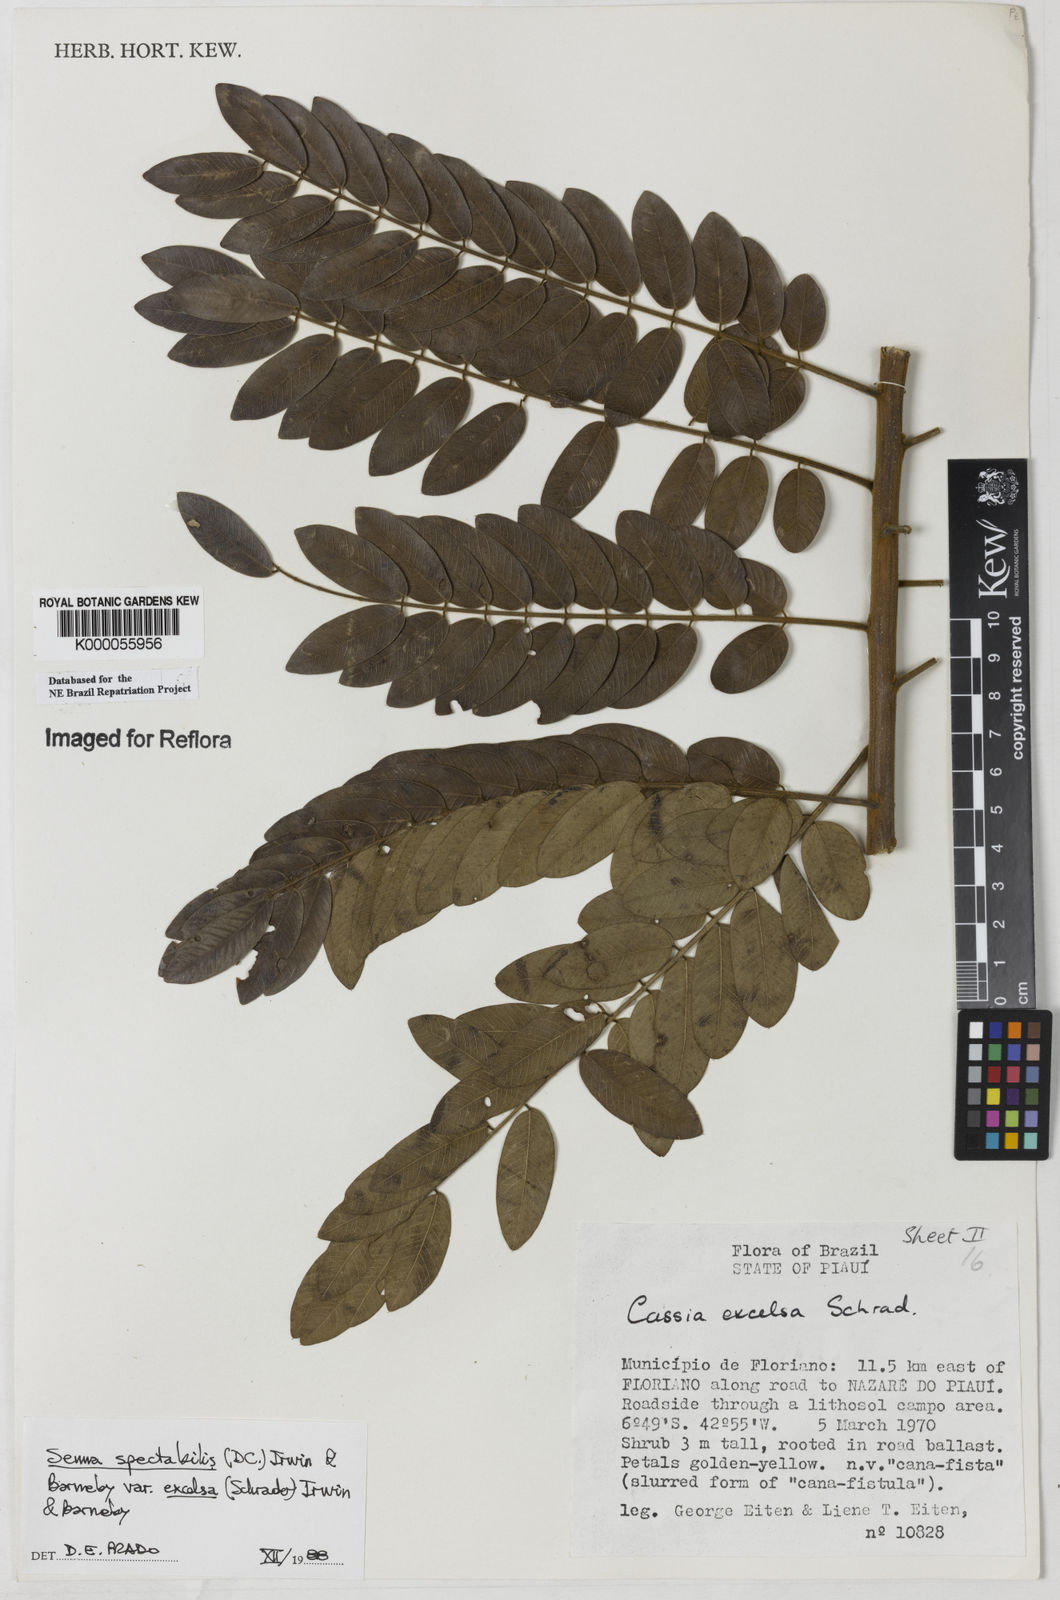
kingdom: Plantae
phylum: Tracheophyta
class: Magnoliopsida
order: Fabales
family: Fabaceae
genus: Senna
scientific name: Senna spectabilis
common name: Casia amarilla
